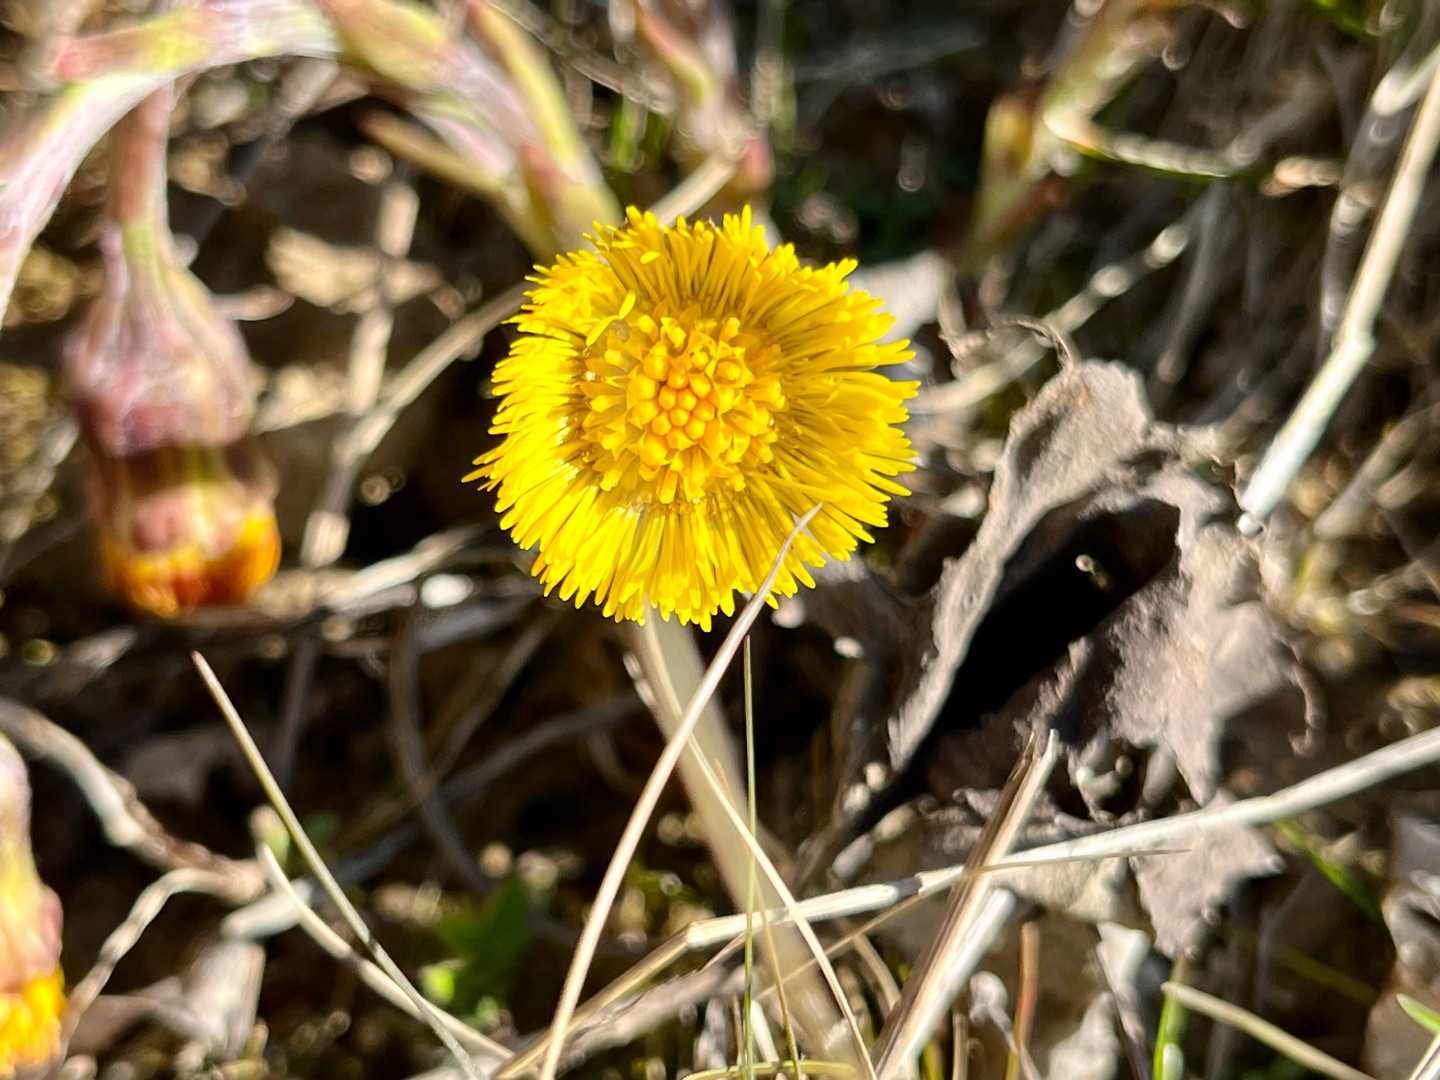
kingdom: Plantae
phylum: Tracheophyta
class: Magnoliopsida
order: Asterales
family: Asteraceae
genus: Tussilago
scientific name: Tussilago farfara
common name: Følfod
